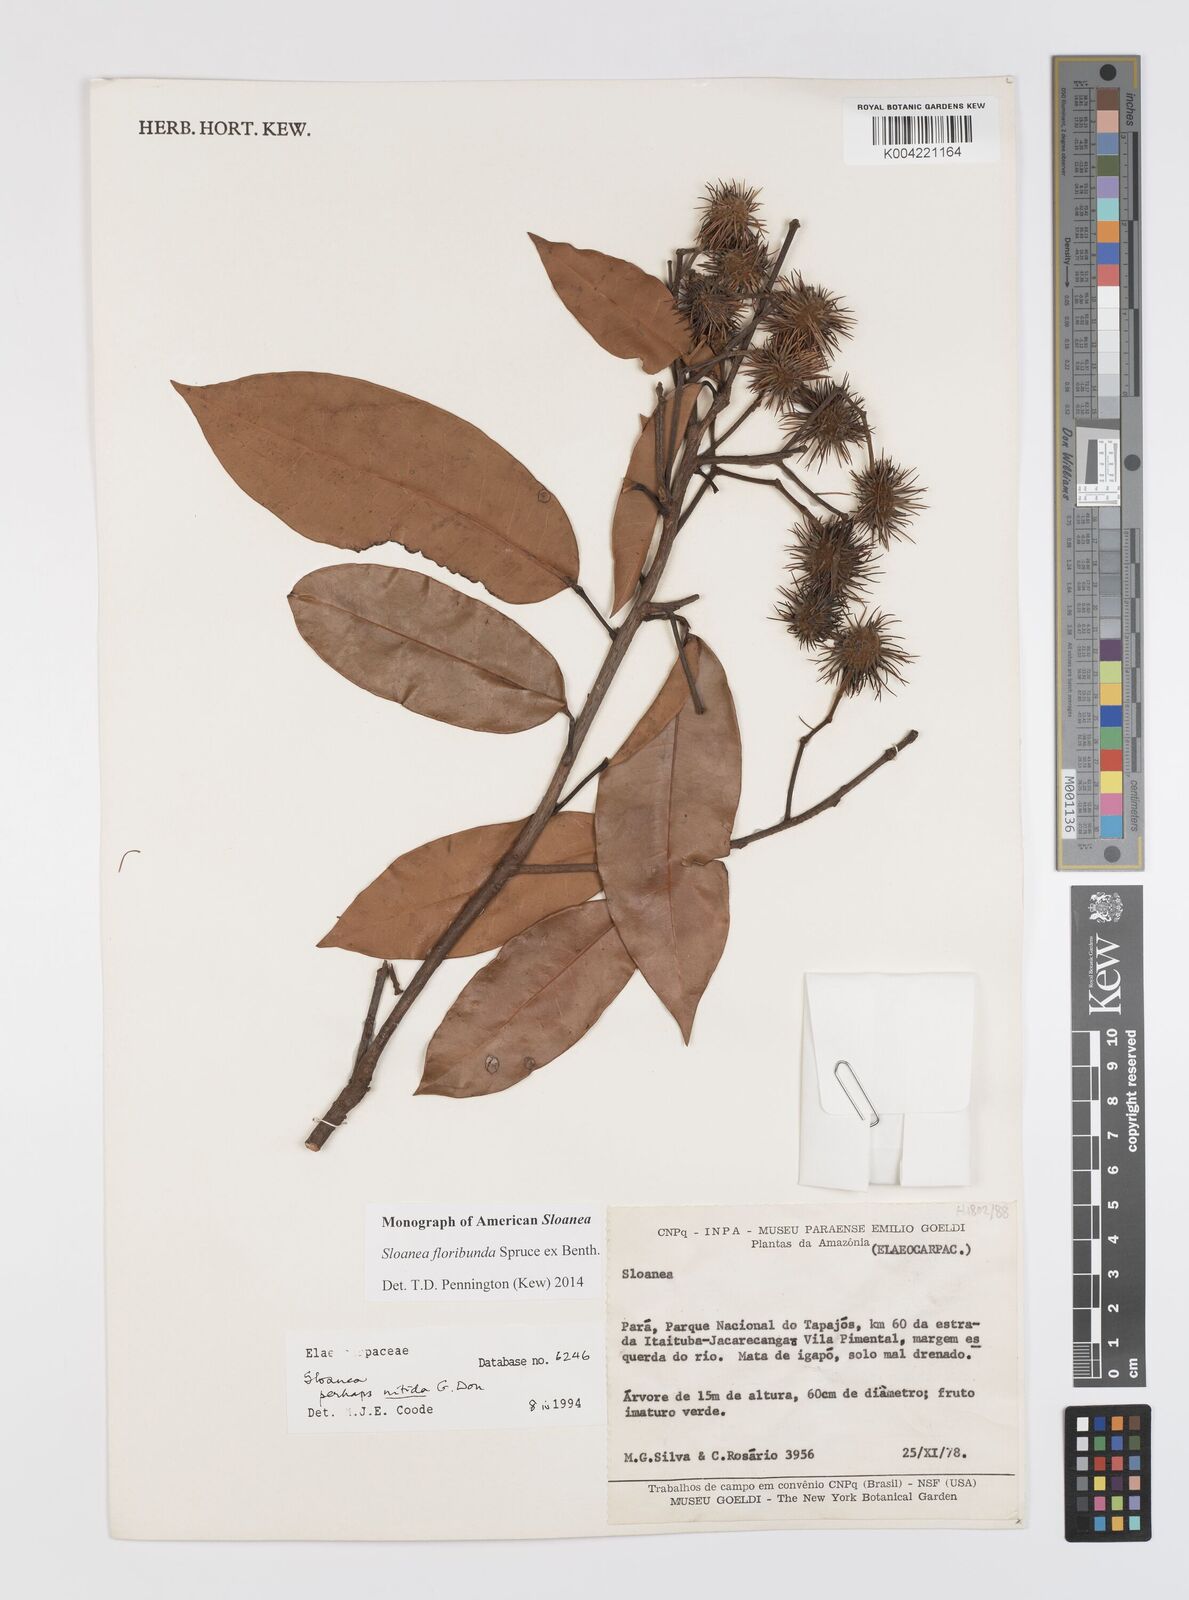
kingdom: Plantae
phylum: Tracheophyta
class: Magnoliopsida
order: Oxalidales
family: Elaeocarpaceae
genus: Sloanea
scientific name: Sloanea floribunda
